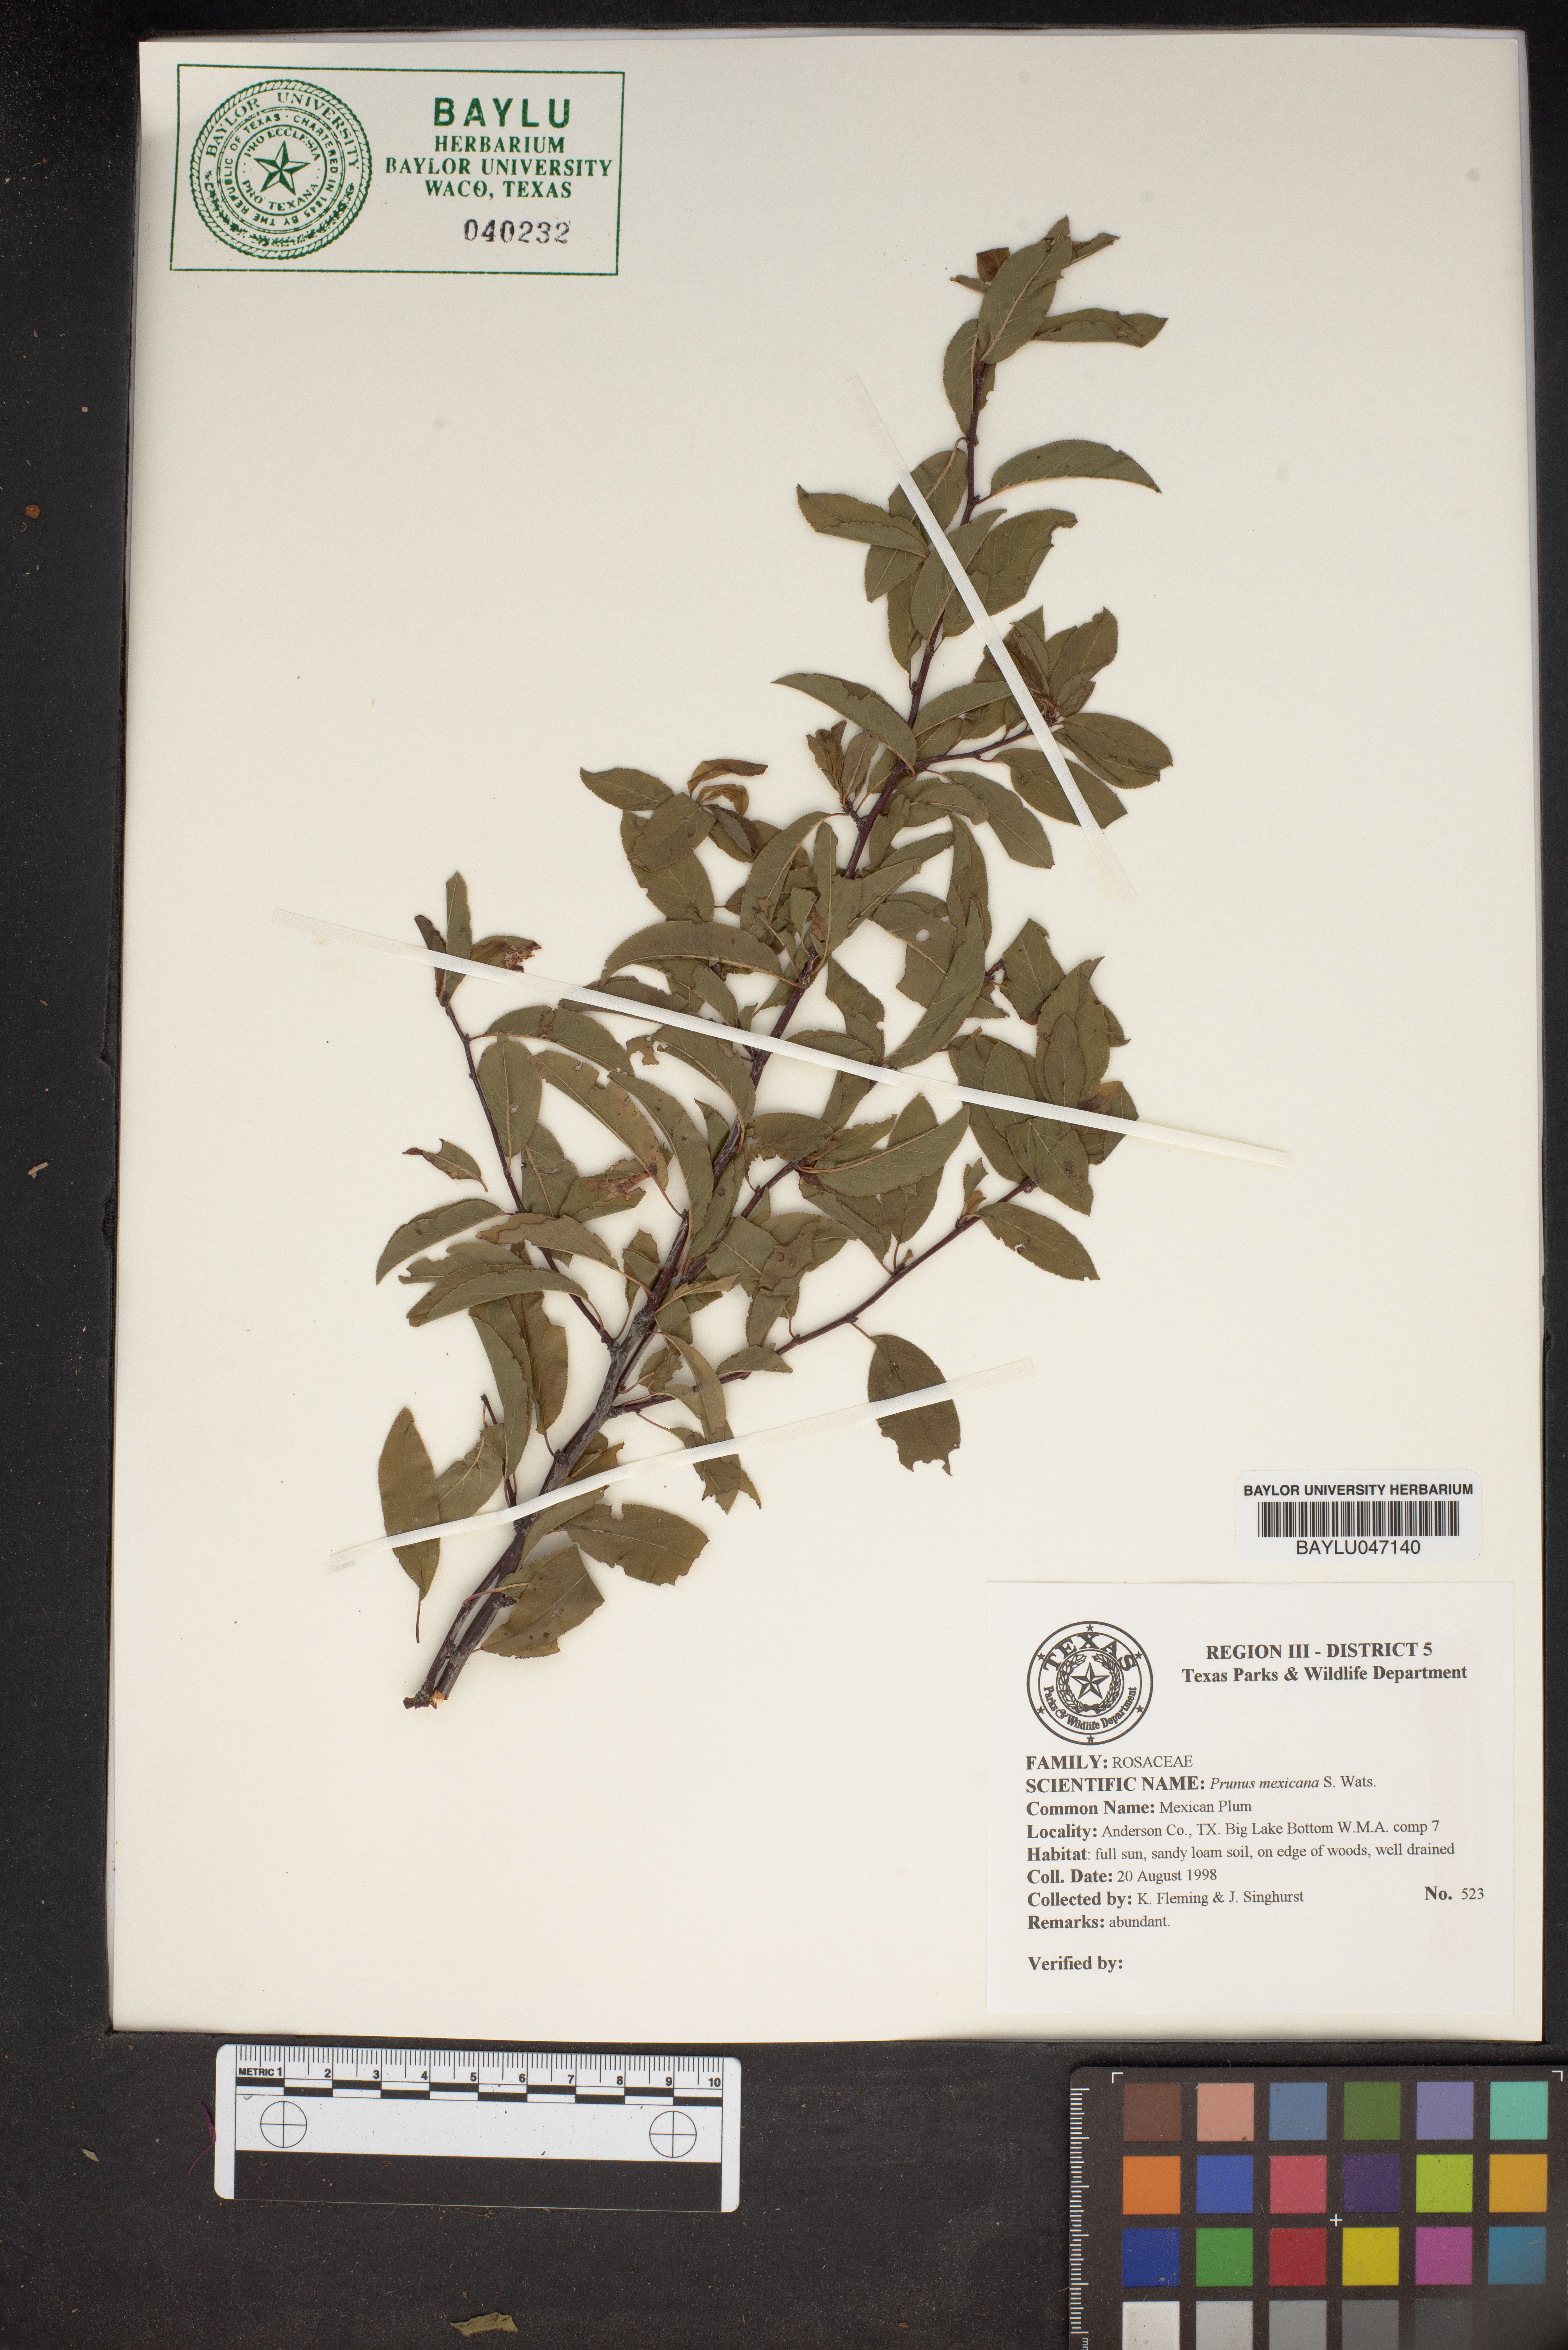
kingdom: Plantae
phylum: Tracheophyta
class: Magnoliopsida
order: Rosales
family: Rosaceae
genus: Prunus
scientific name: Prunus mexicana
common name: Mexican plum
